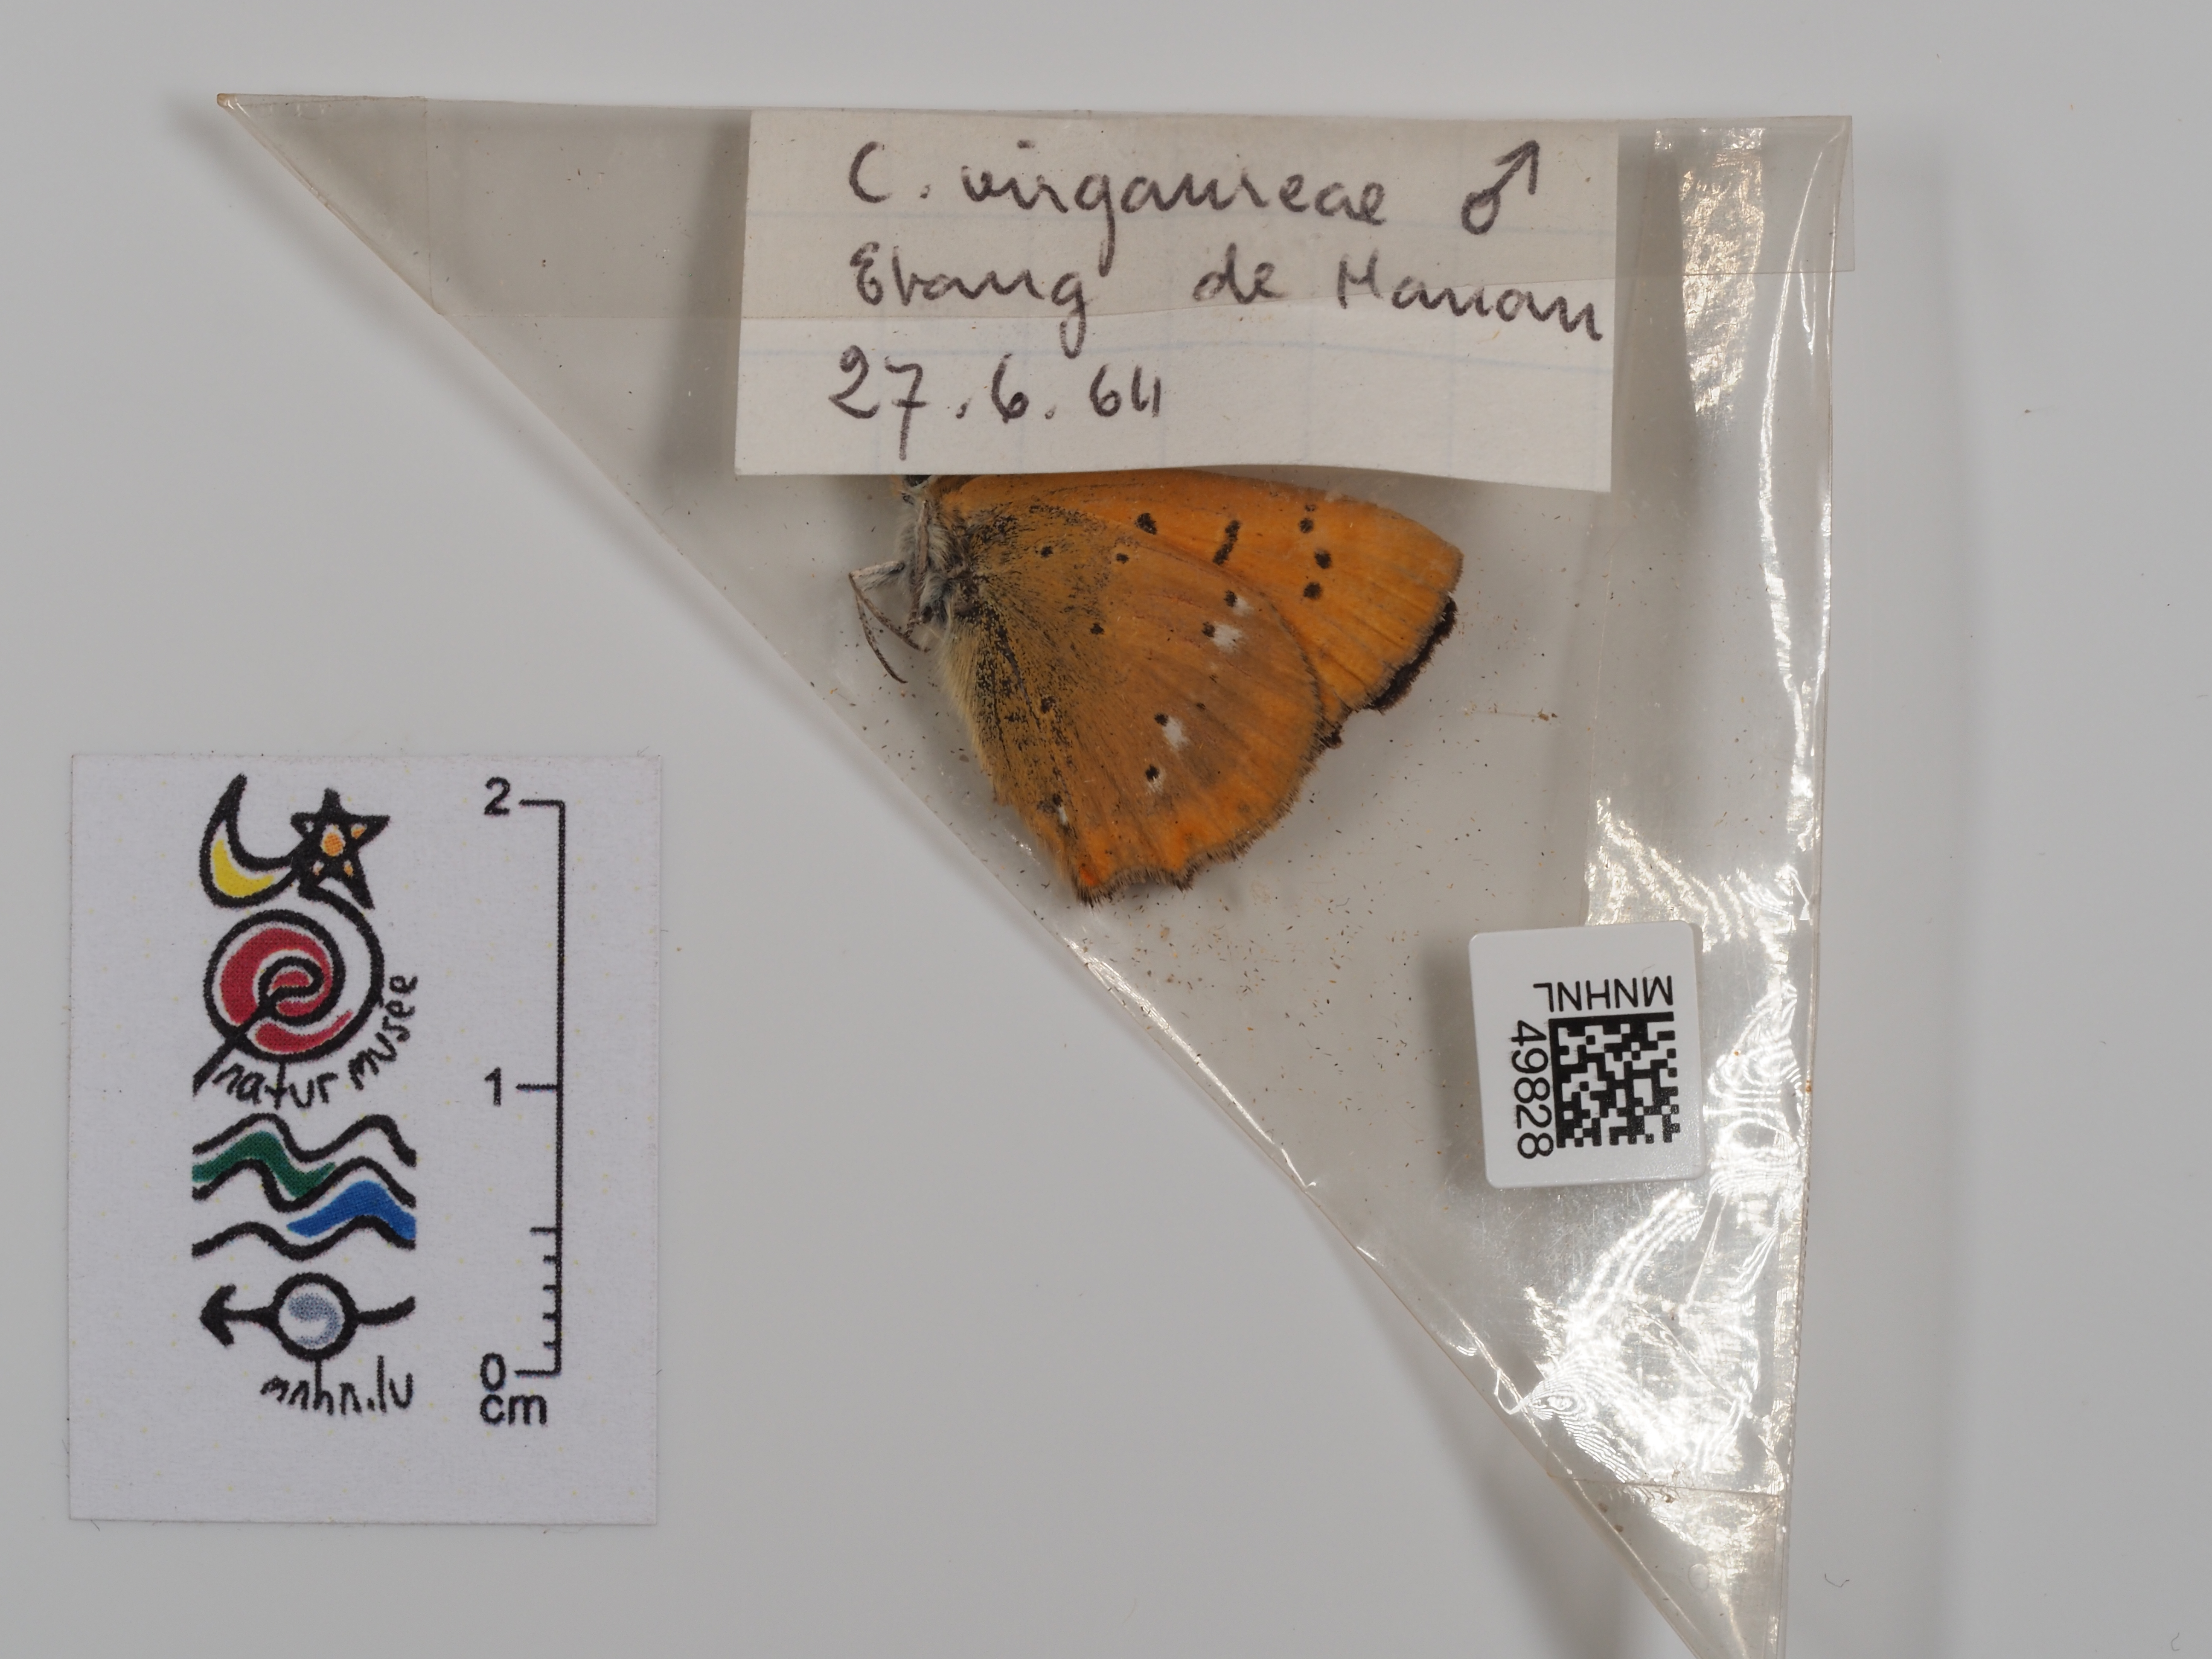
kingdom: Animalia
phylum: Arthropoda
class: Insecta
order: Lepidoptera
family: Lycaenidae
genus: Lycaena
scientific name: Lycaena virgaureae
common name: Scarce copper
